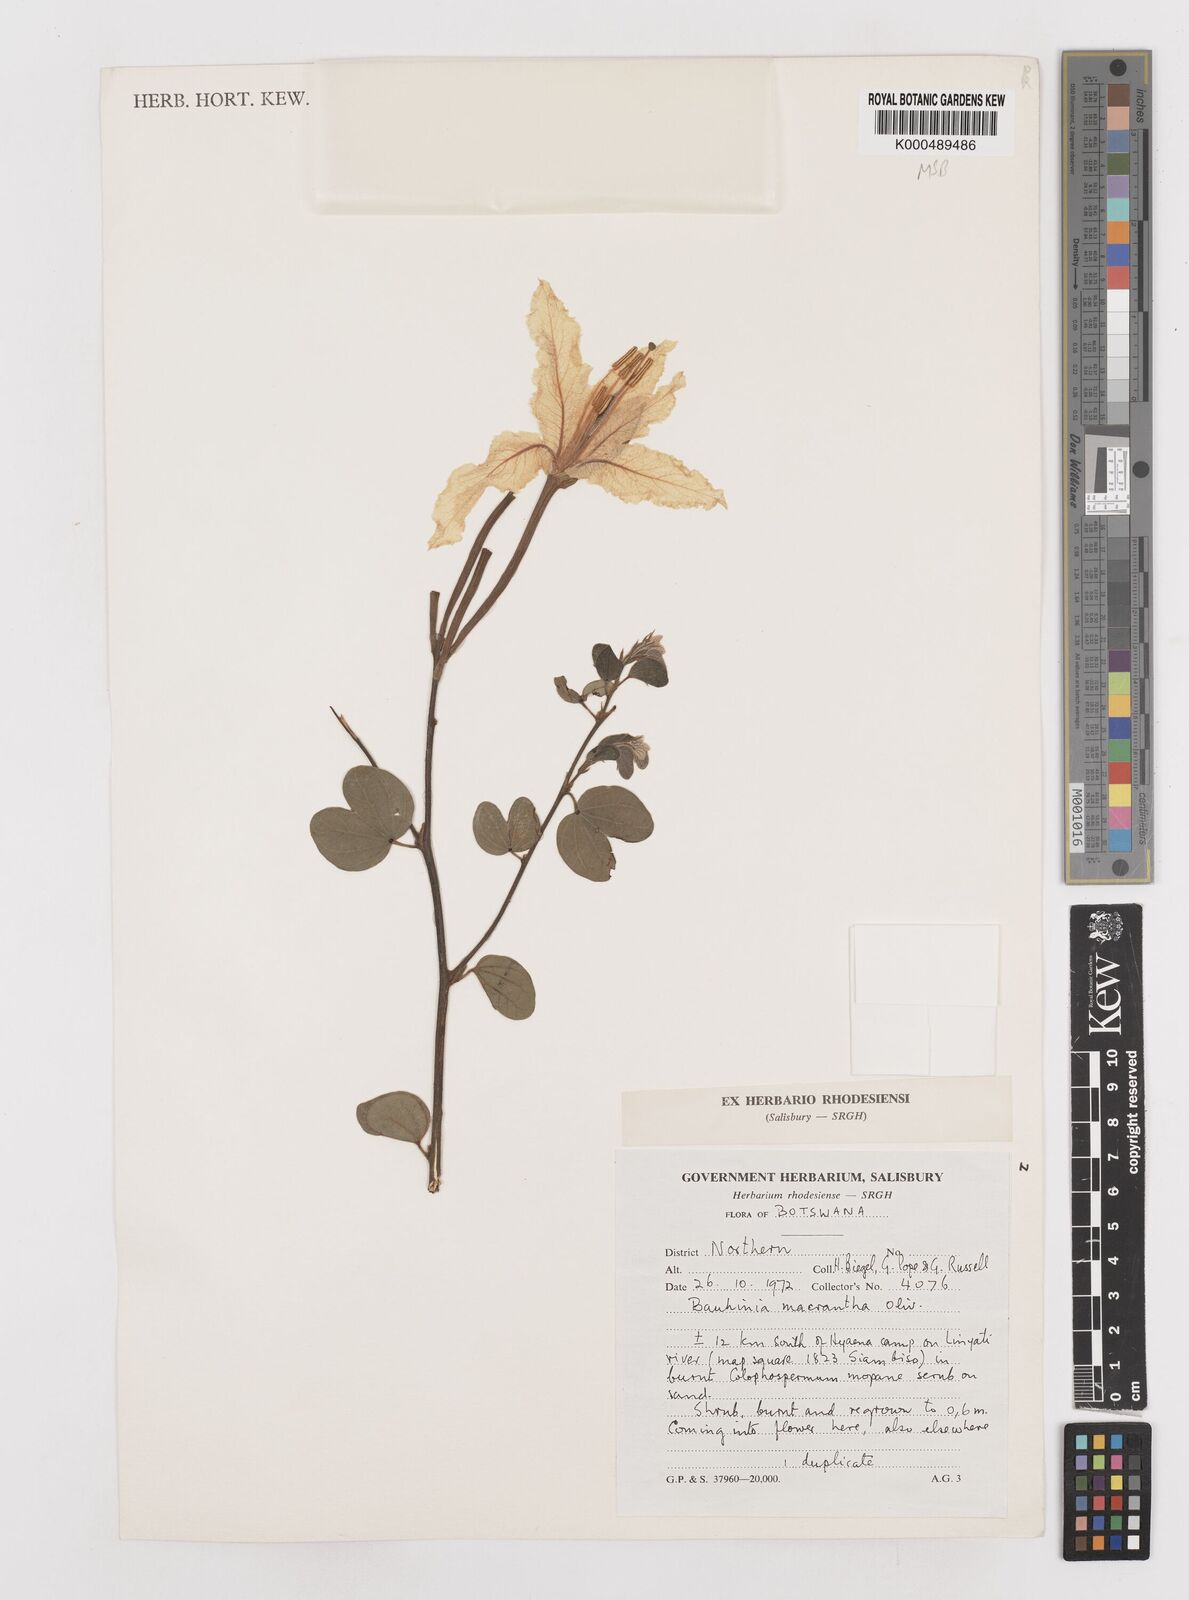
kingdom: Plantae
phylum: Tracheophyta
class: Magnoliopsida
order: Fabales
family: Fabaceae
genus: Bauhinia
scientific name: Bauhinia macrantha
